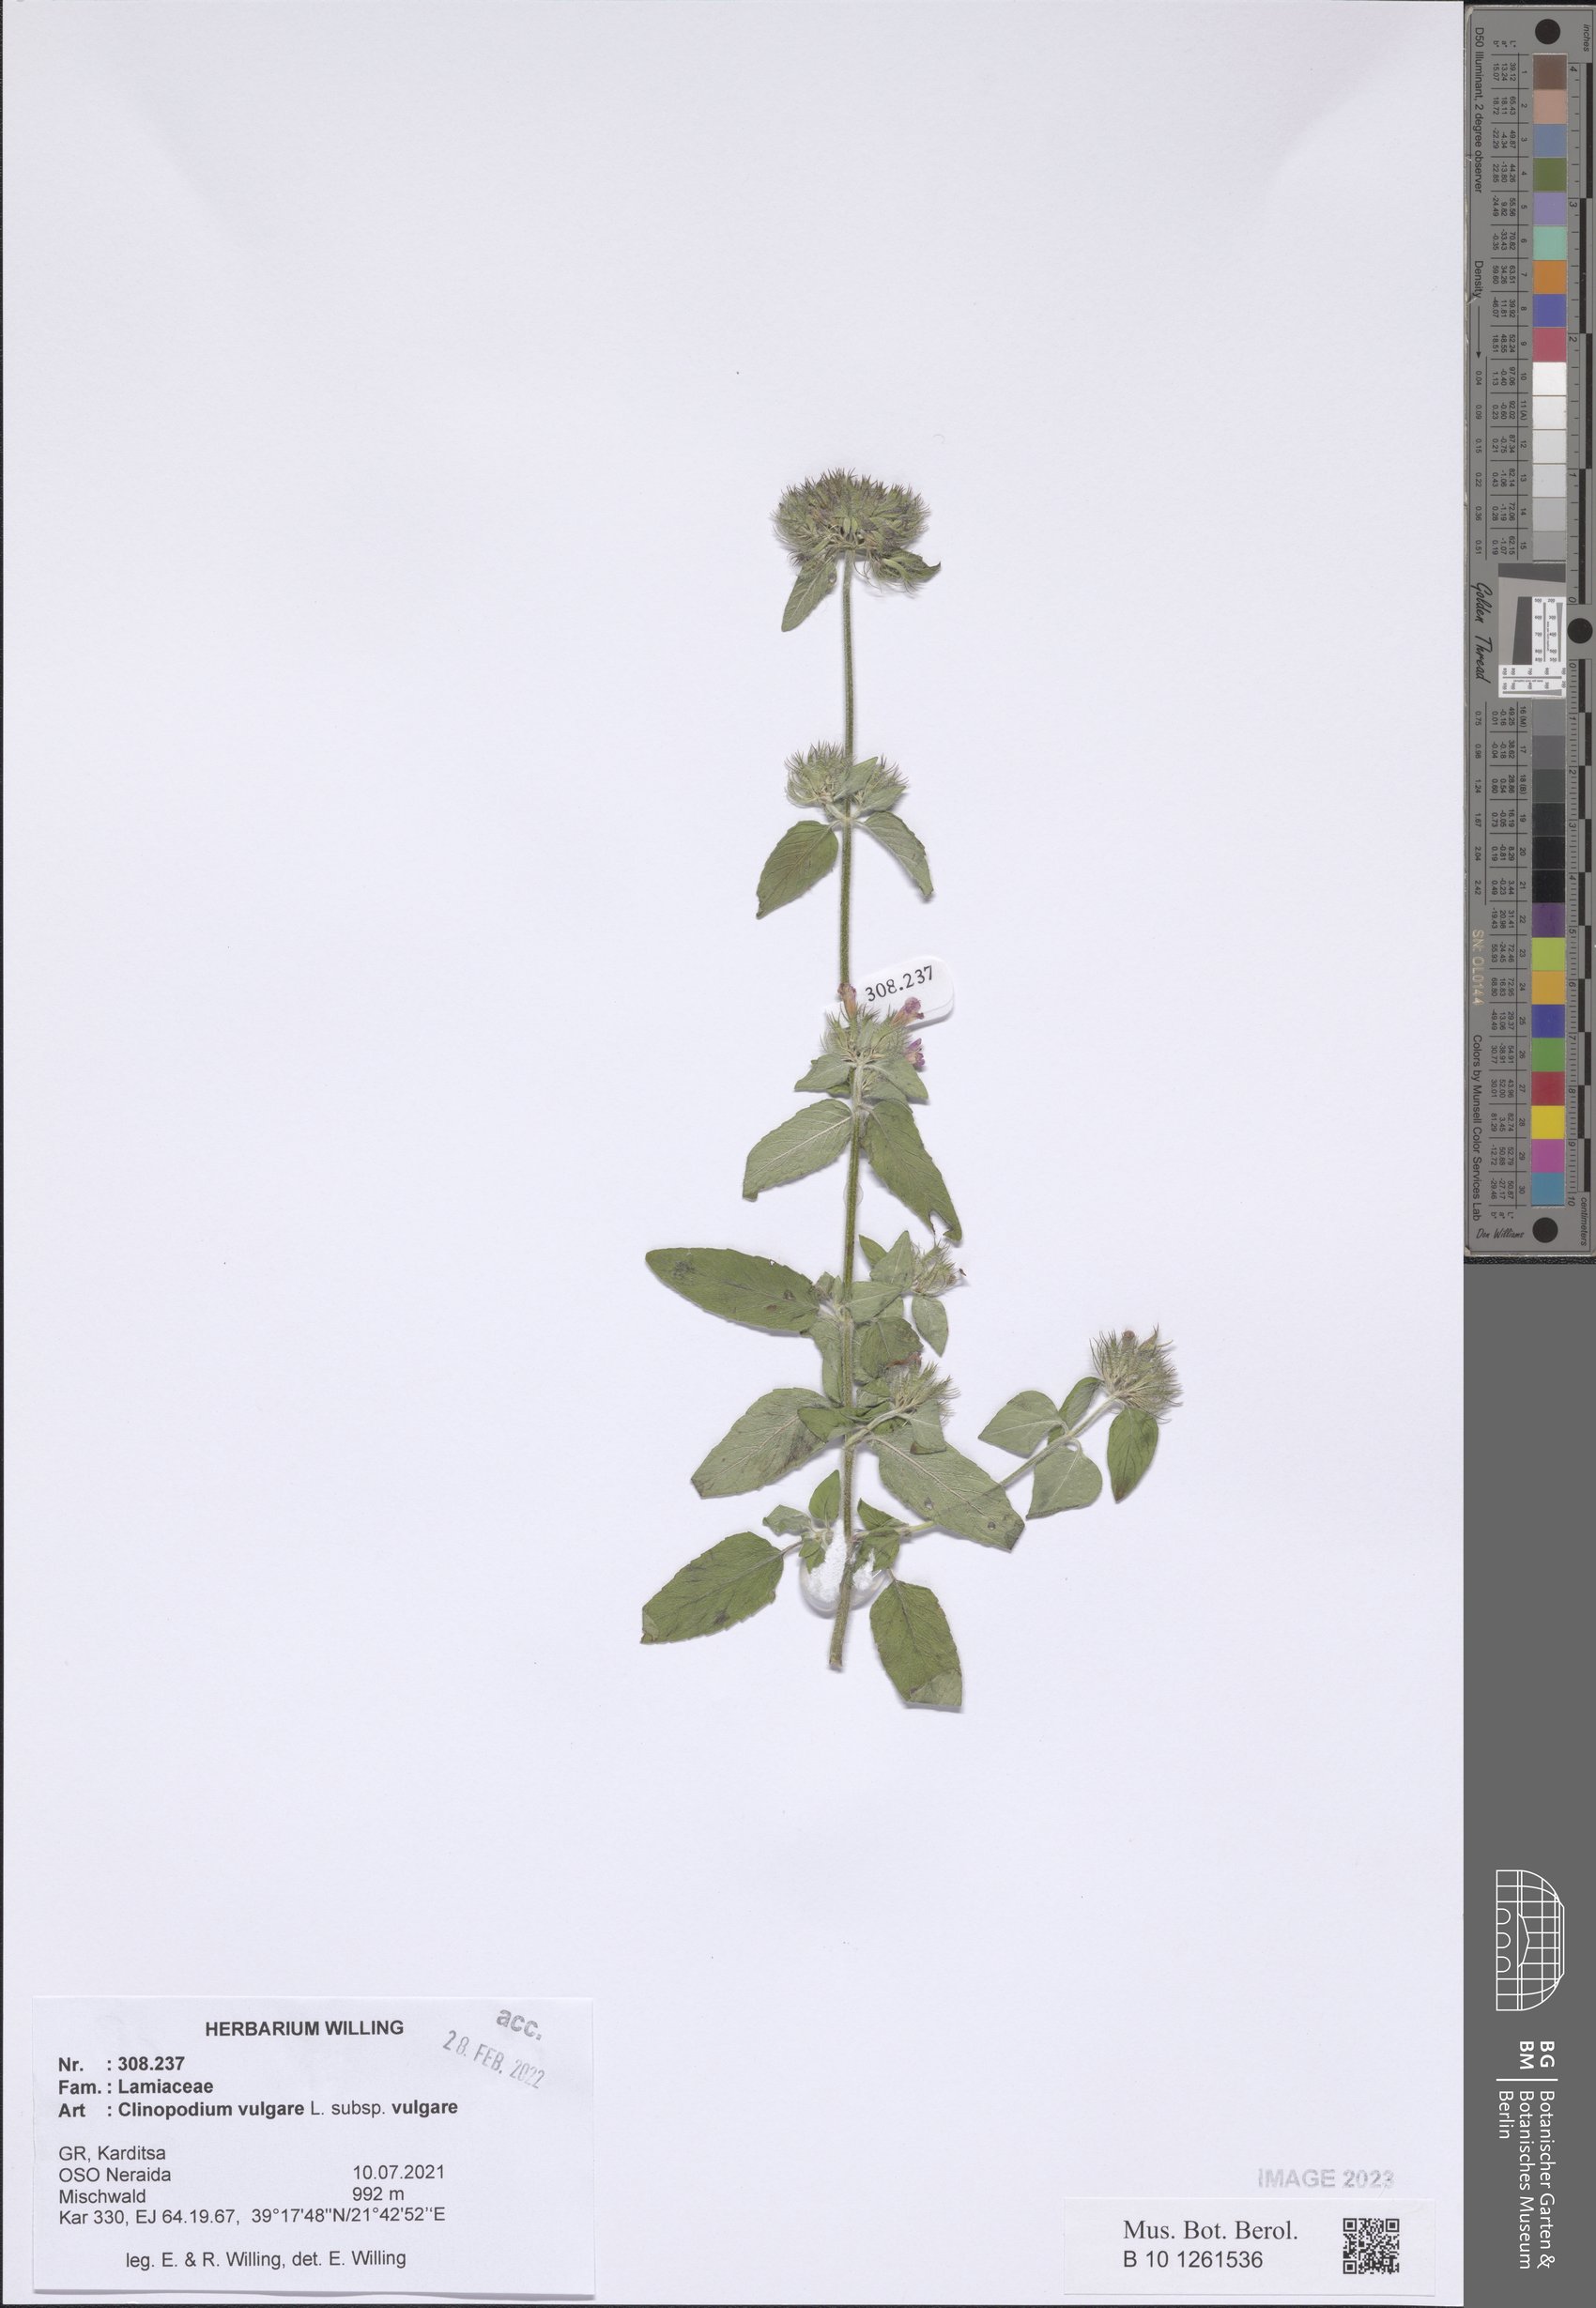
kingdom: Plantae
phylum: Tracheophyta
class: Magnoliopsida
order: Lamiales
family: Lamiaceae
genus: Clinopodium
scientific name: Clinopodium vulgare
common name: Wild basil
